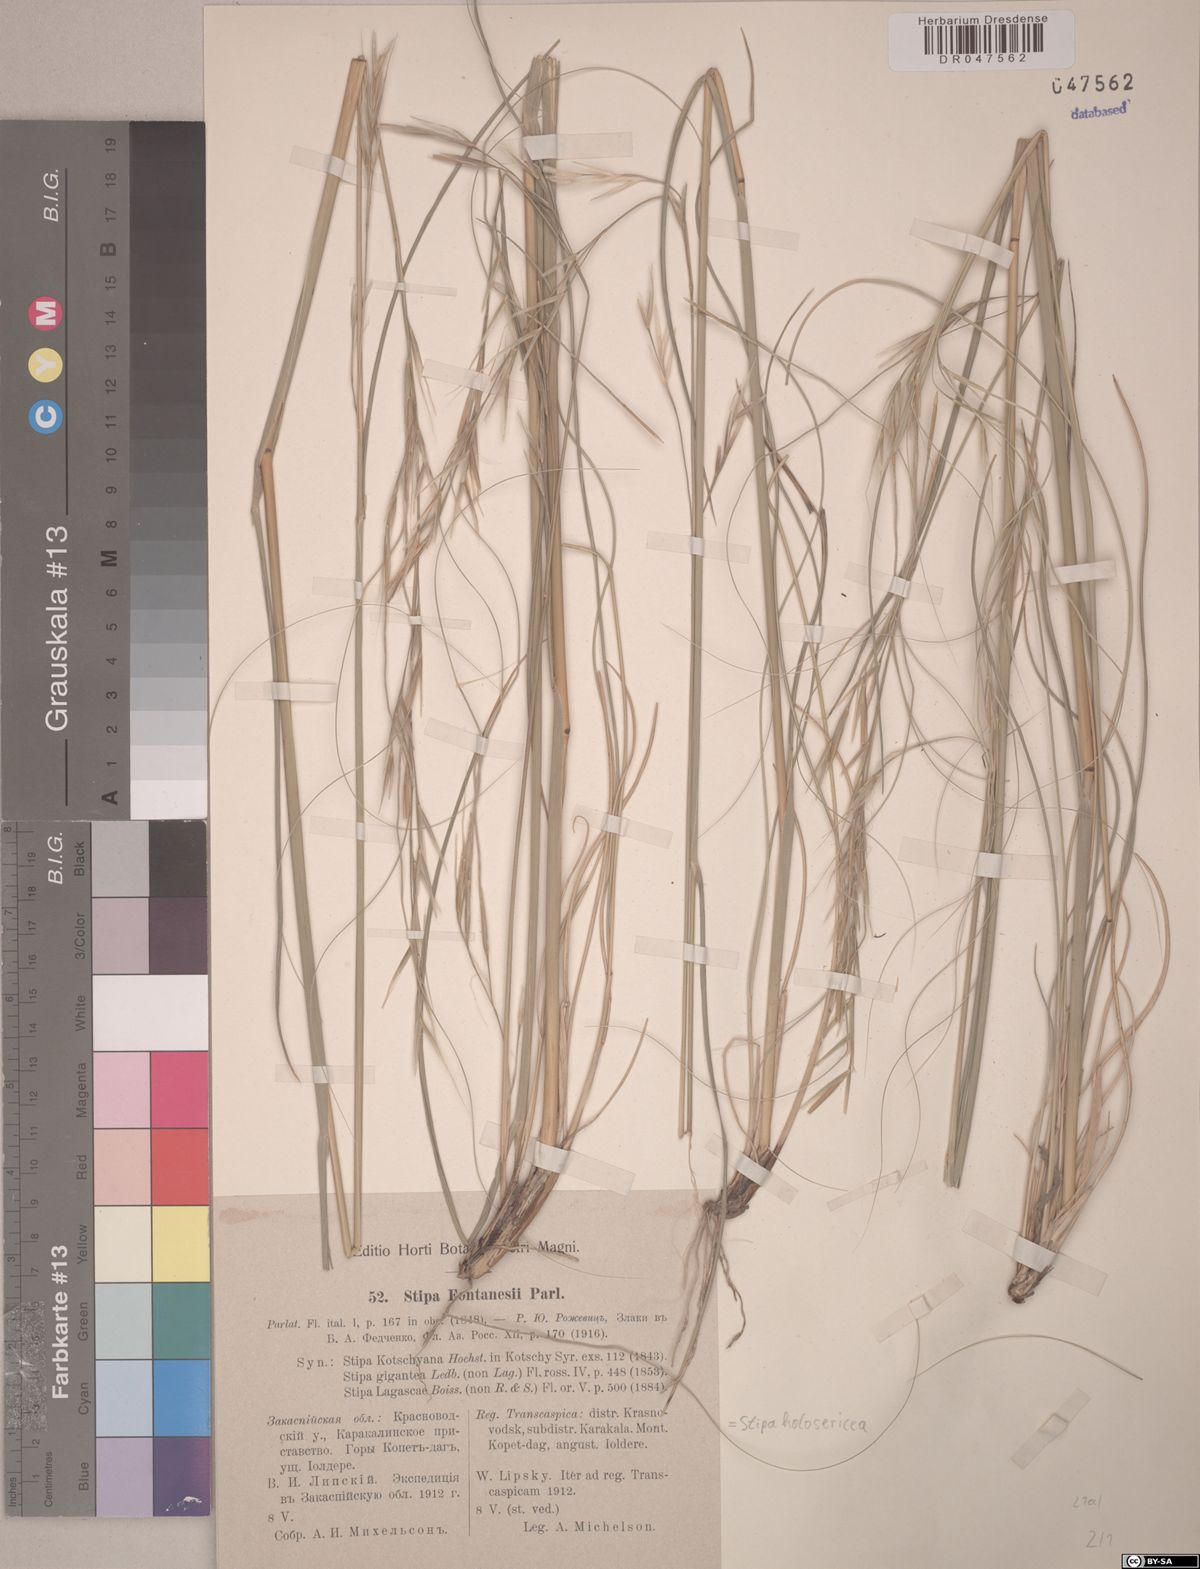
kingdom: Plantae
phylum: Tracheophyta
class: Liliopsida
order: Poales
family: Poaceae
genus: Stipa
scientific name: Stipa holosericea
